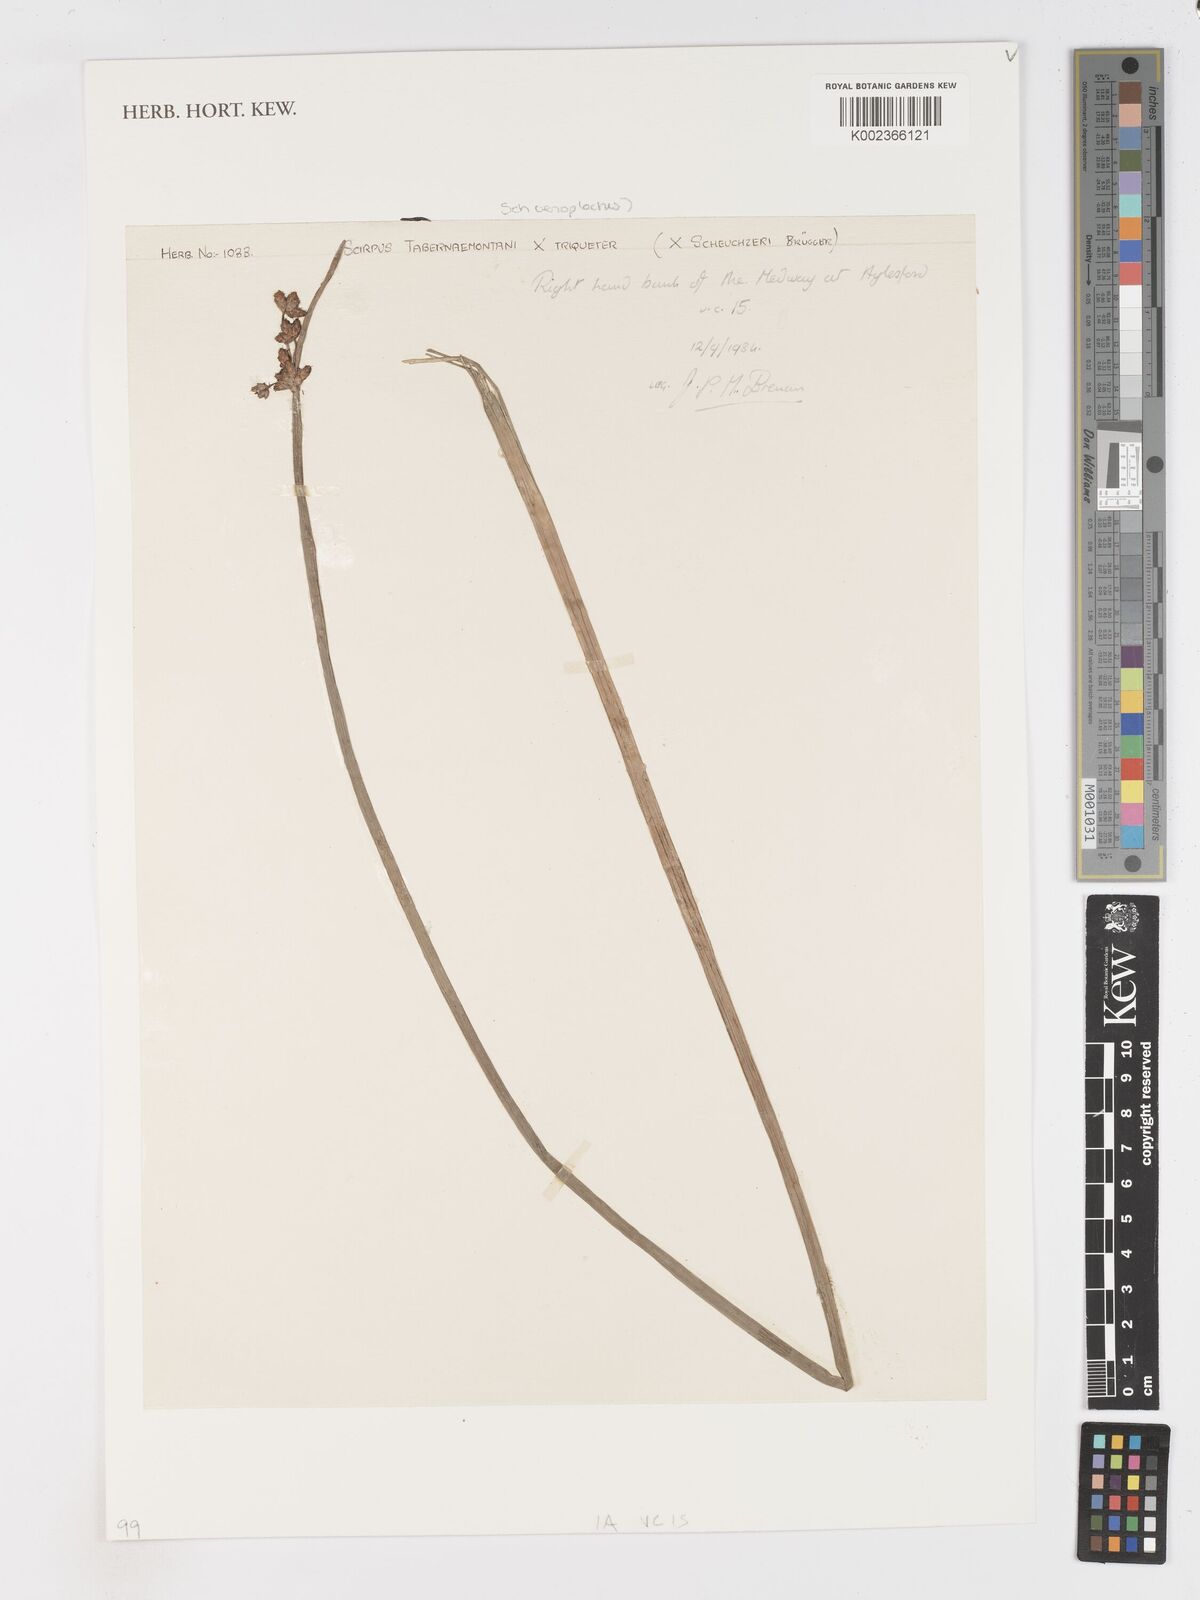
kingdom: Plantae
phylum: Tracheophyta
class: Liliopsida
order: Poales
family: Cyperaceae
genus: Schoenoplectus
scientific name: Schoenoplectus triqueter
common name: Triangular club-rush
